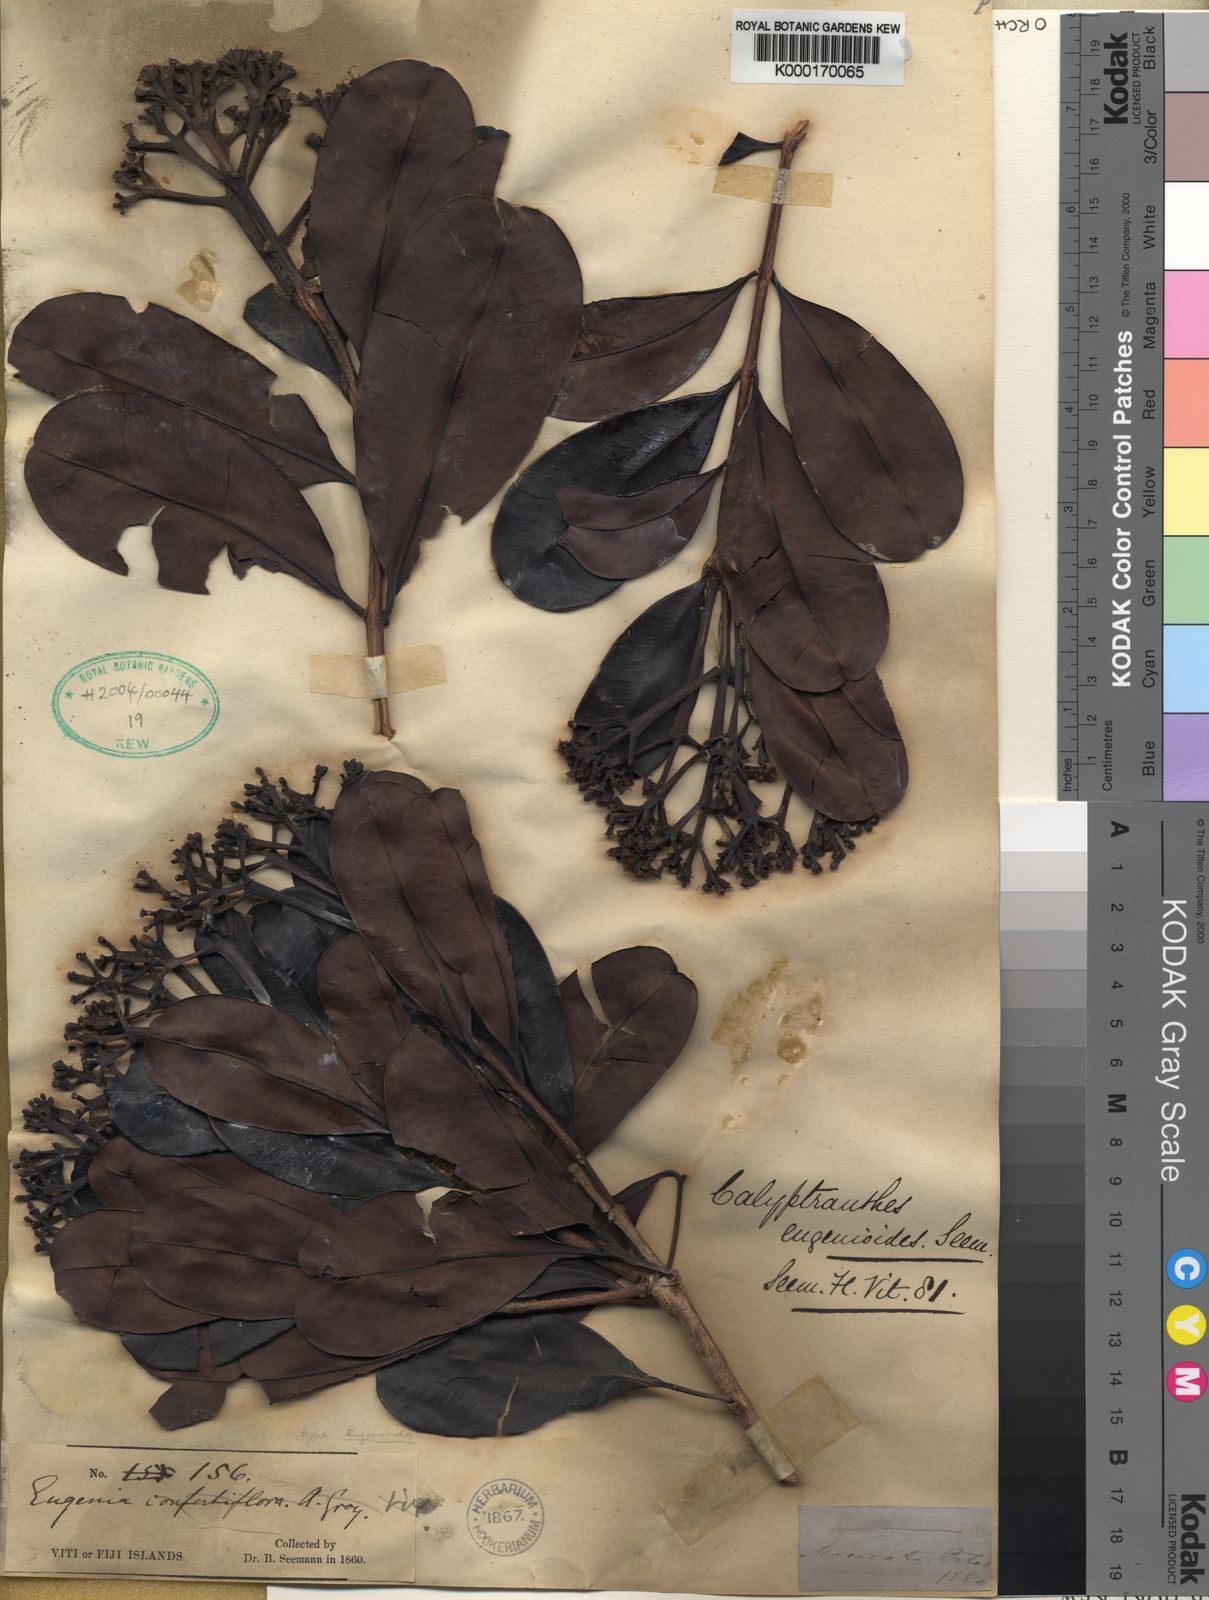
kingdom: Plantae
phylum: Tracheophyta
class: Magnoliopsida
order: Myrtales
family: Myrtaceae
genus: Syzygium
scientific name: Syzygium eugenioides
